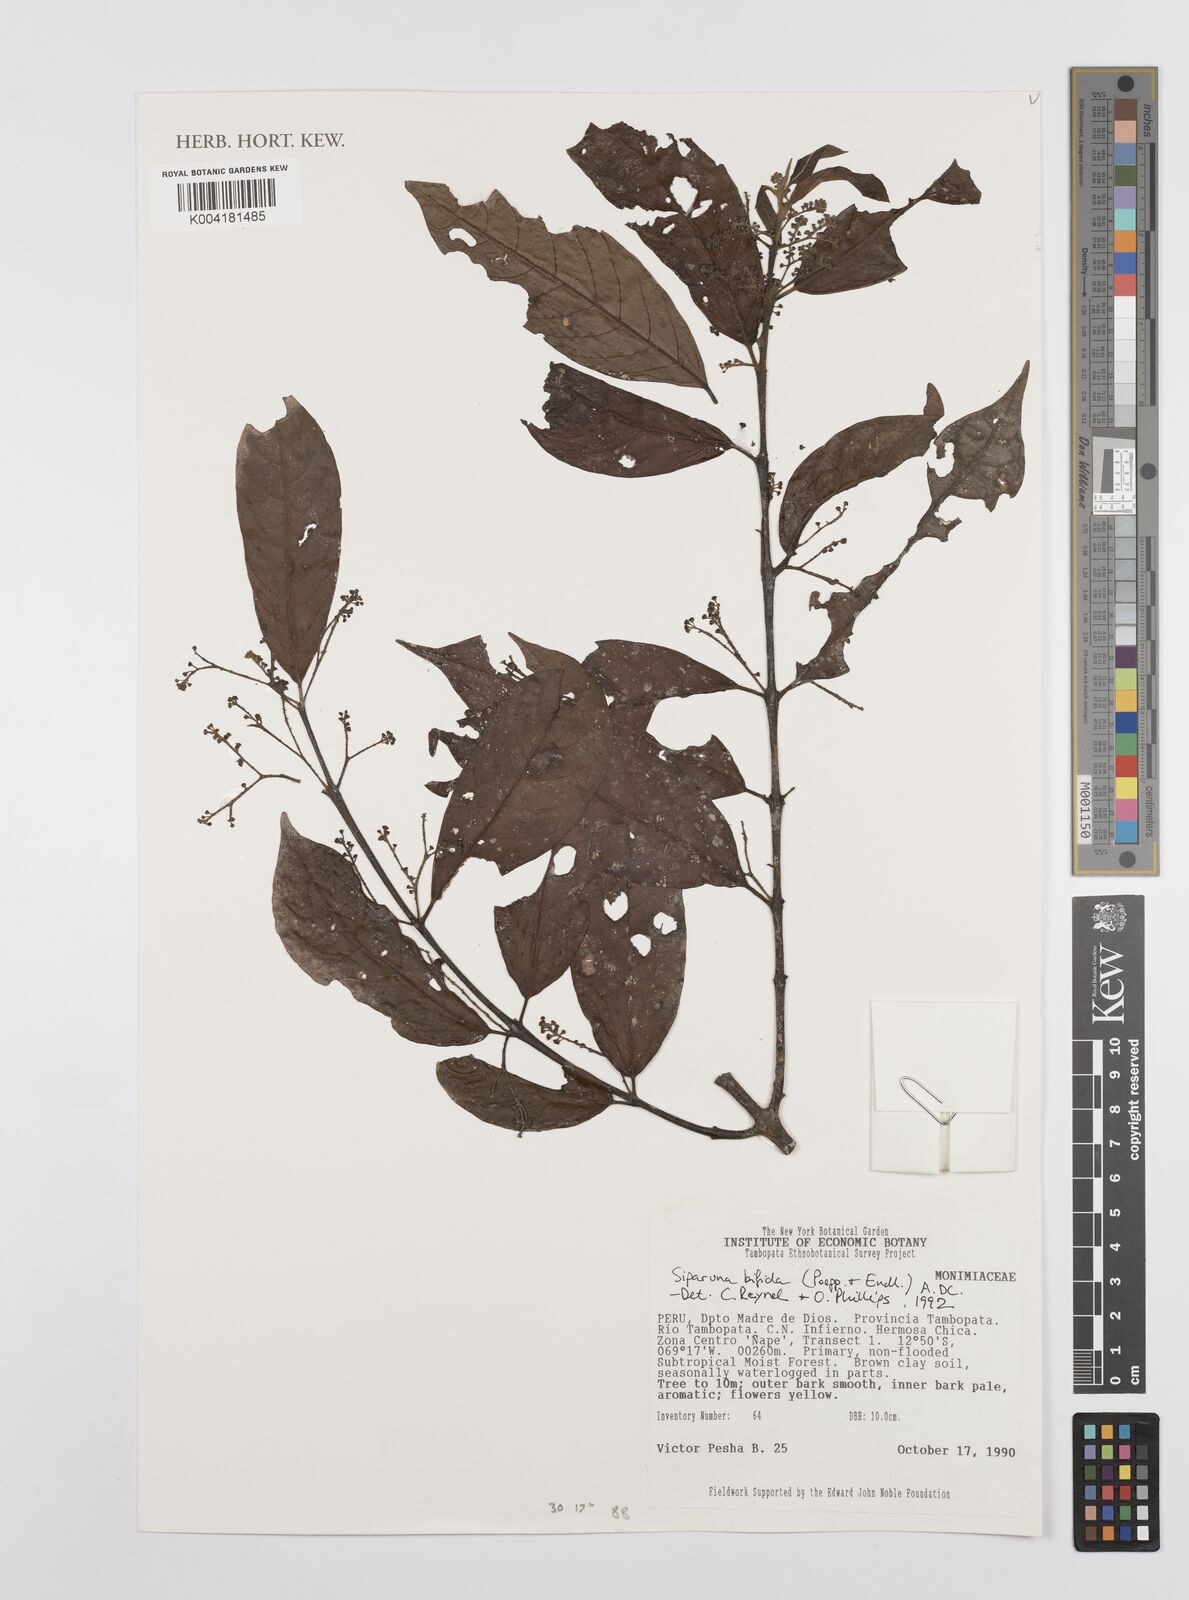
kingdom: Plantae
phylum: Tracheophyta
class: Magnoliopsida
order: Laurales
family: Siparunaceae
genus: Siparuna
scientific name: Siparuna bifida
